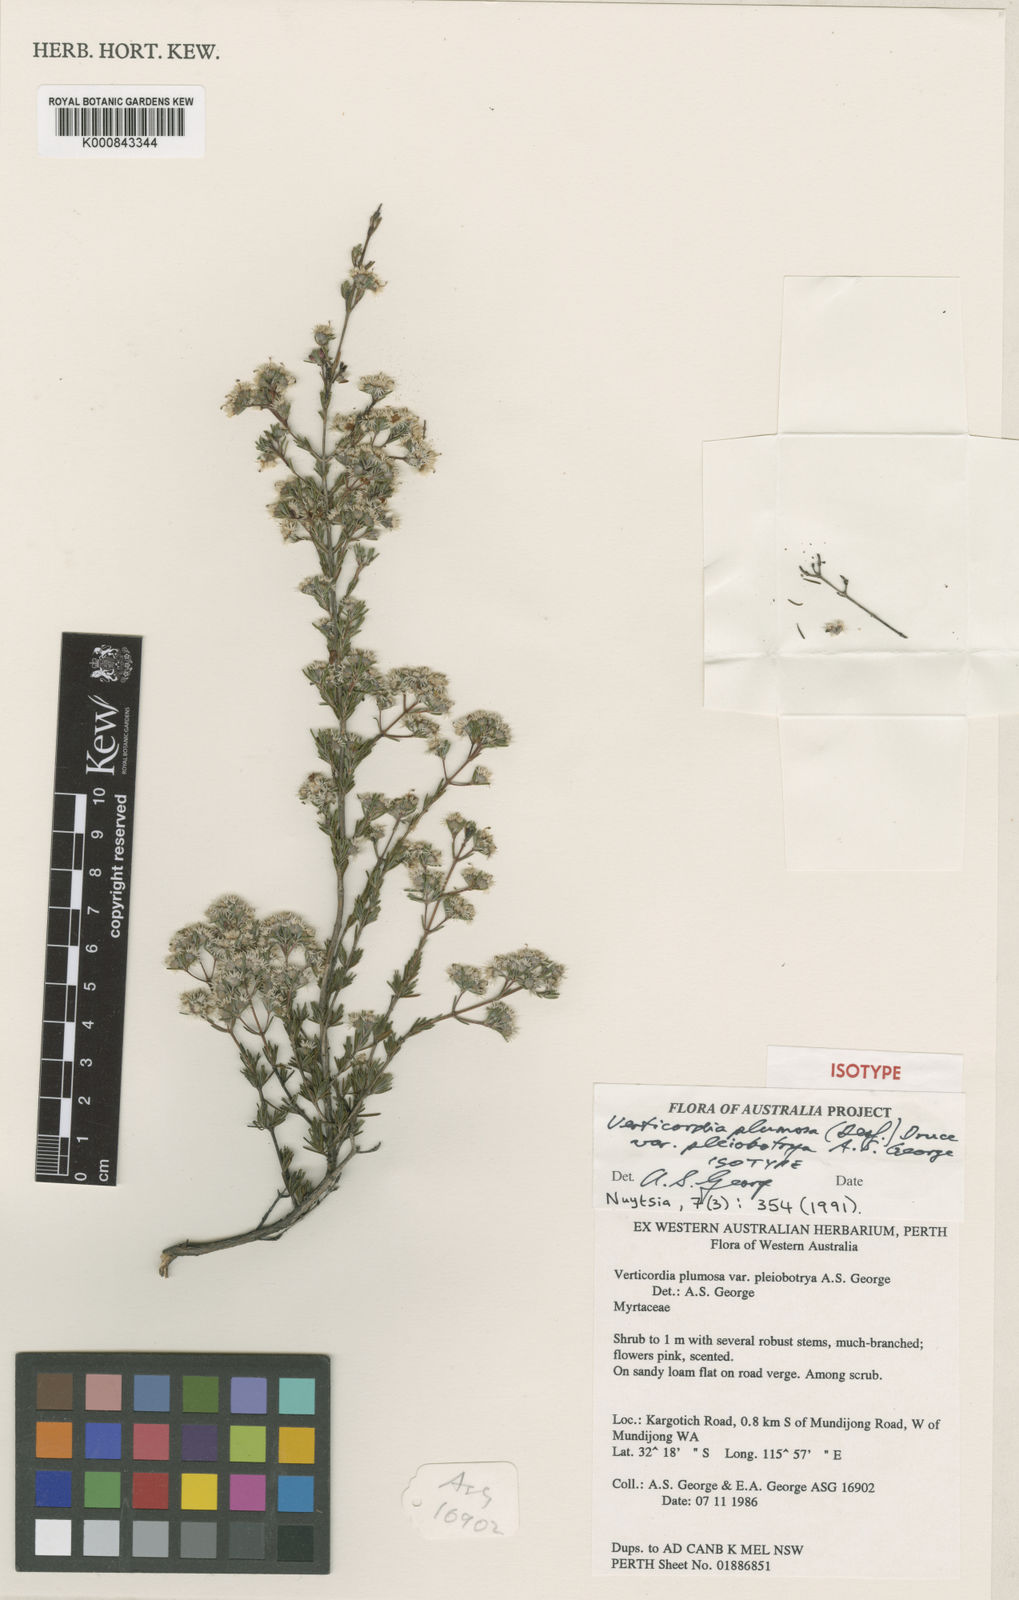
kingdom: Plantae
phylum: Tracheophyta
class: Magnoliopsida
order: Myrtales
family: Myrtaceae
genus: Verticordia
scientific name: Verticordia plumosa
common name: Plume feather-flower
